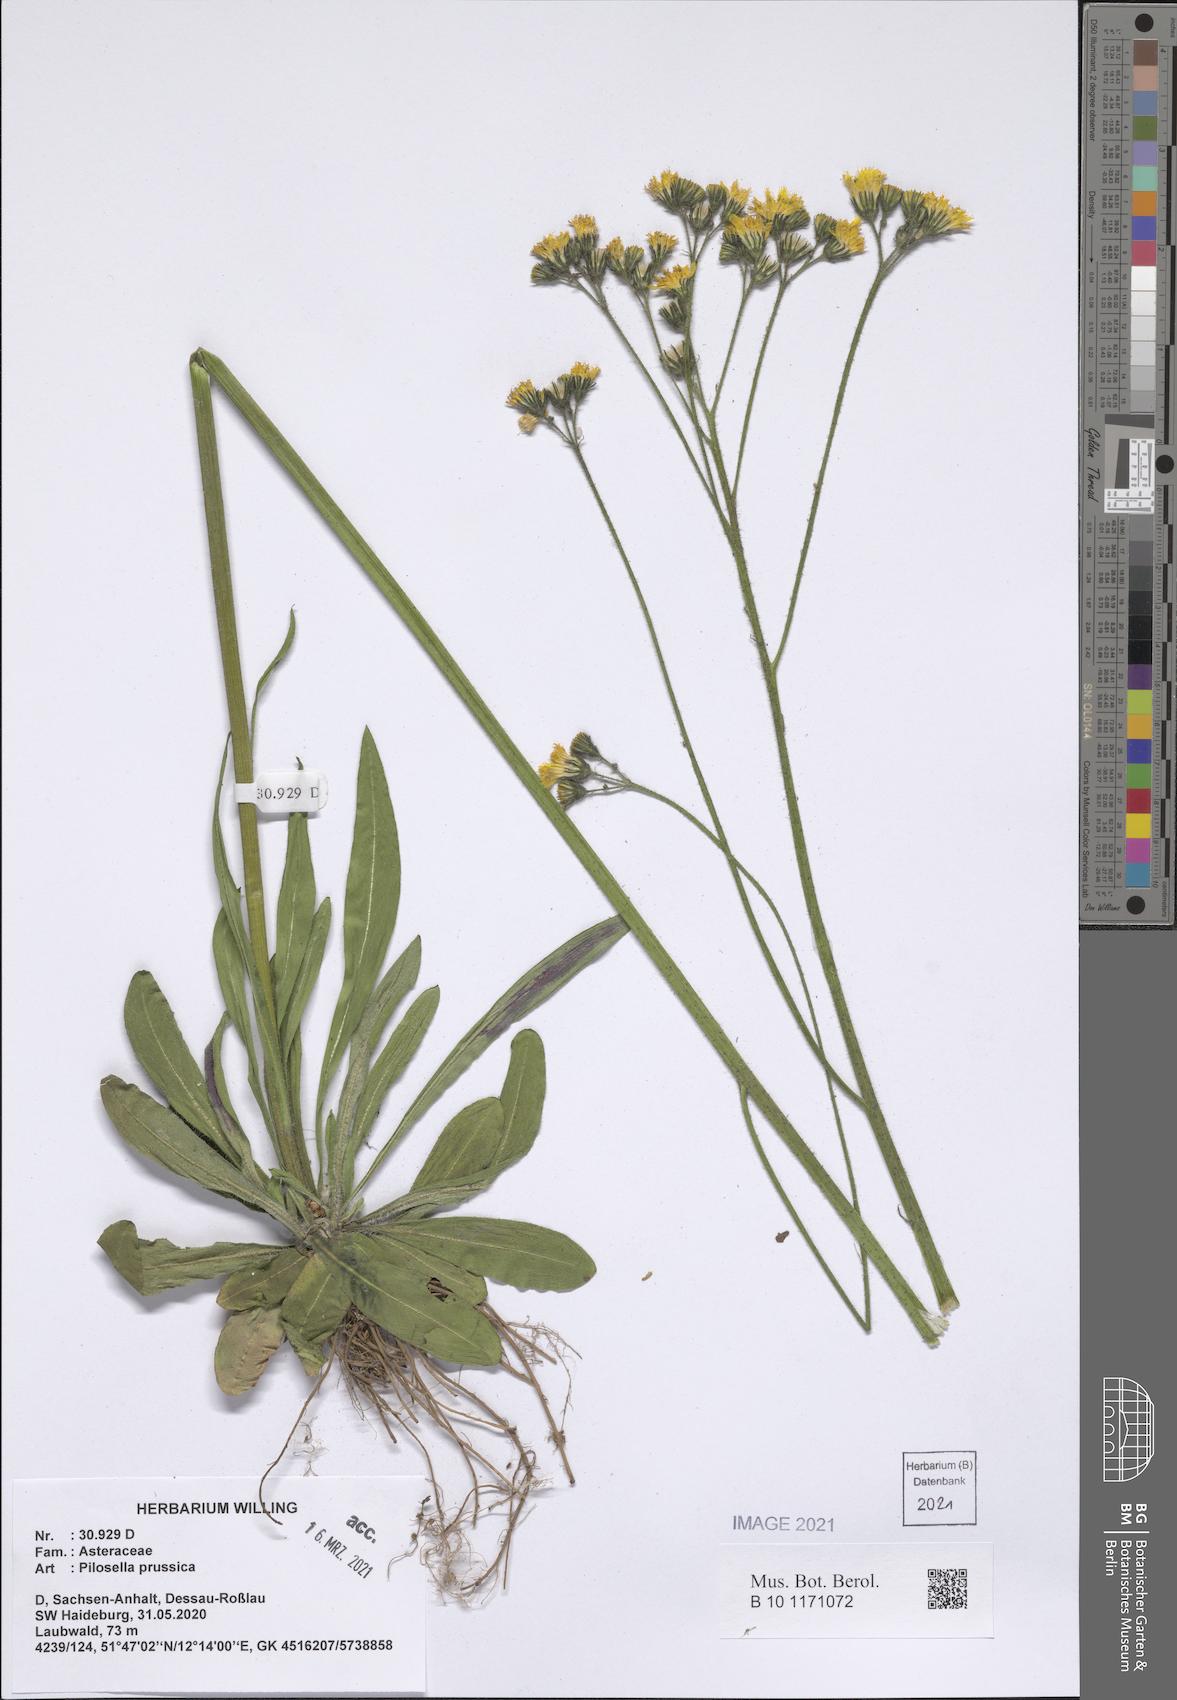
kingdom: Plantae
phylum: Tracheophyta
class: Magnoliopsida
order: Asterales
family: Asteraceae
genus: Pilosella
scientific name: Pilosella prussica
